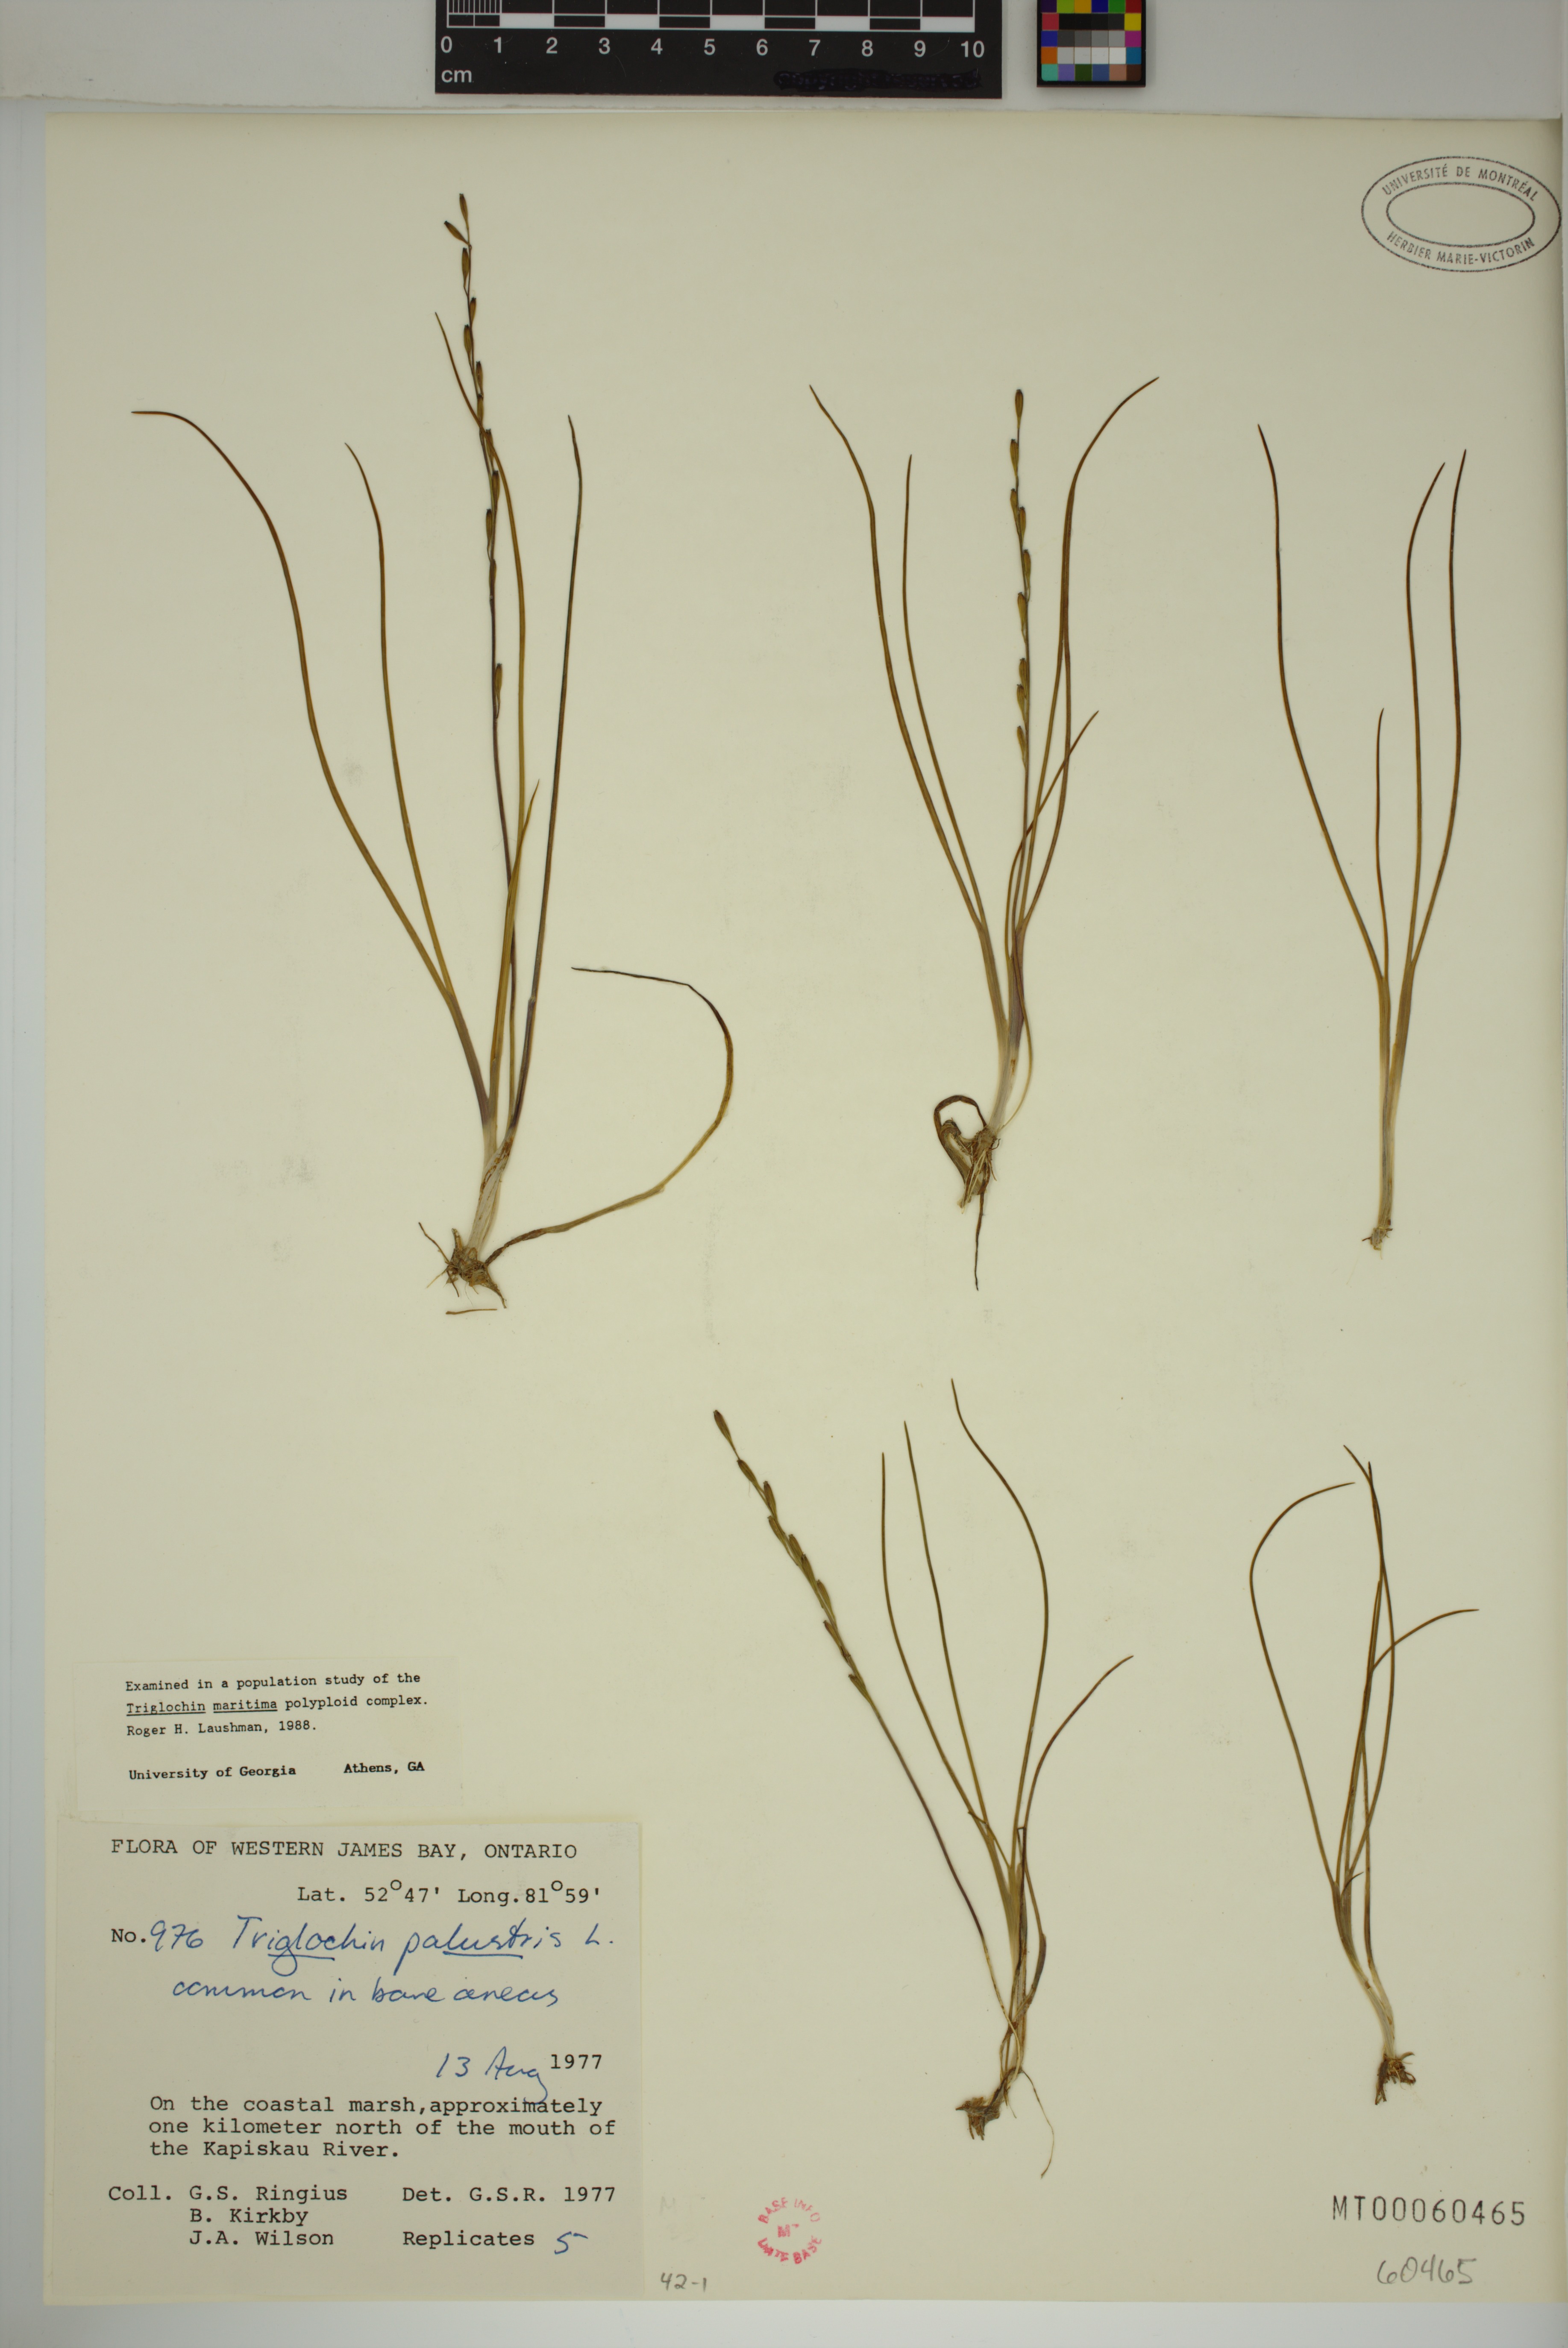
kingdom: Plantae
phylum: Tracheophyta
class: Liliopsida
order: Alismatales
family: Juncaginaceae
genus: Triglochin
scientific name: Triglochin palustris
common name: Marsh arrowgrass
